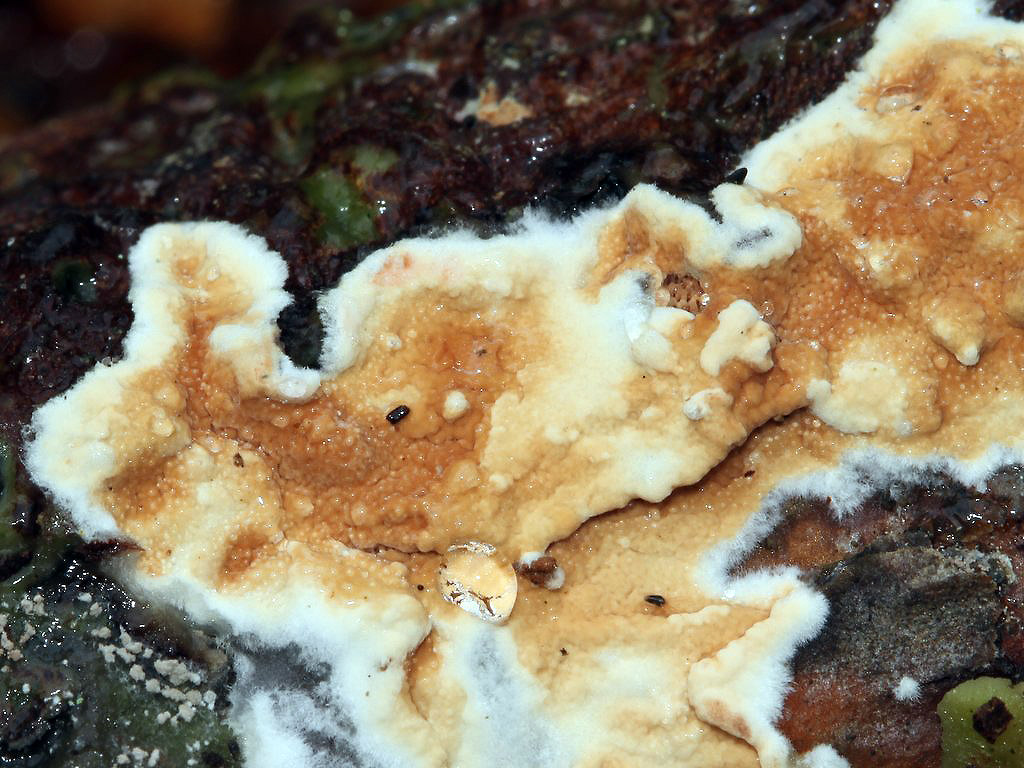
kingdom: Fungi
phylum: Basidiomycota
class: Agaricomycetes
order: Polyporales
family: Irpicaceae
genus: Meruliopsis
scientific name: Meruliopsis taxicola
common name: purpurbrun foldporesvamp
